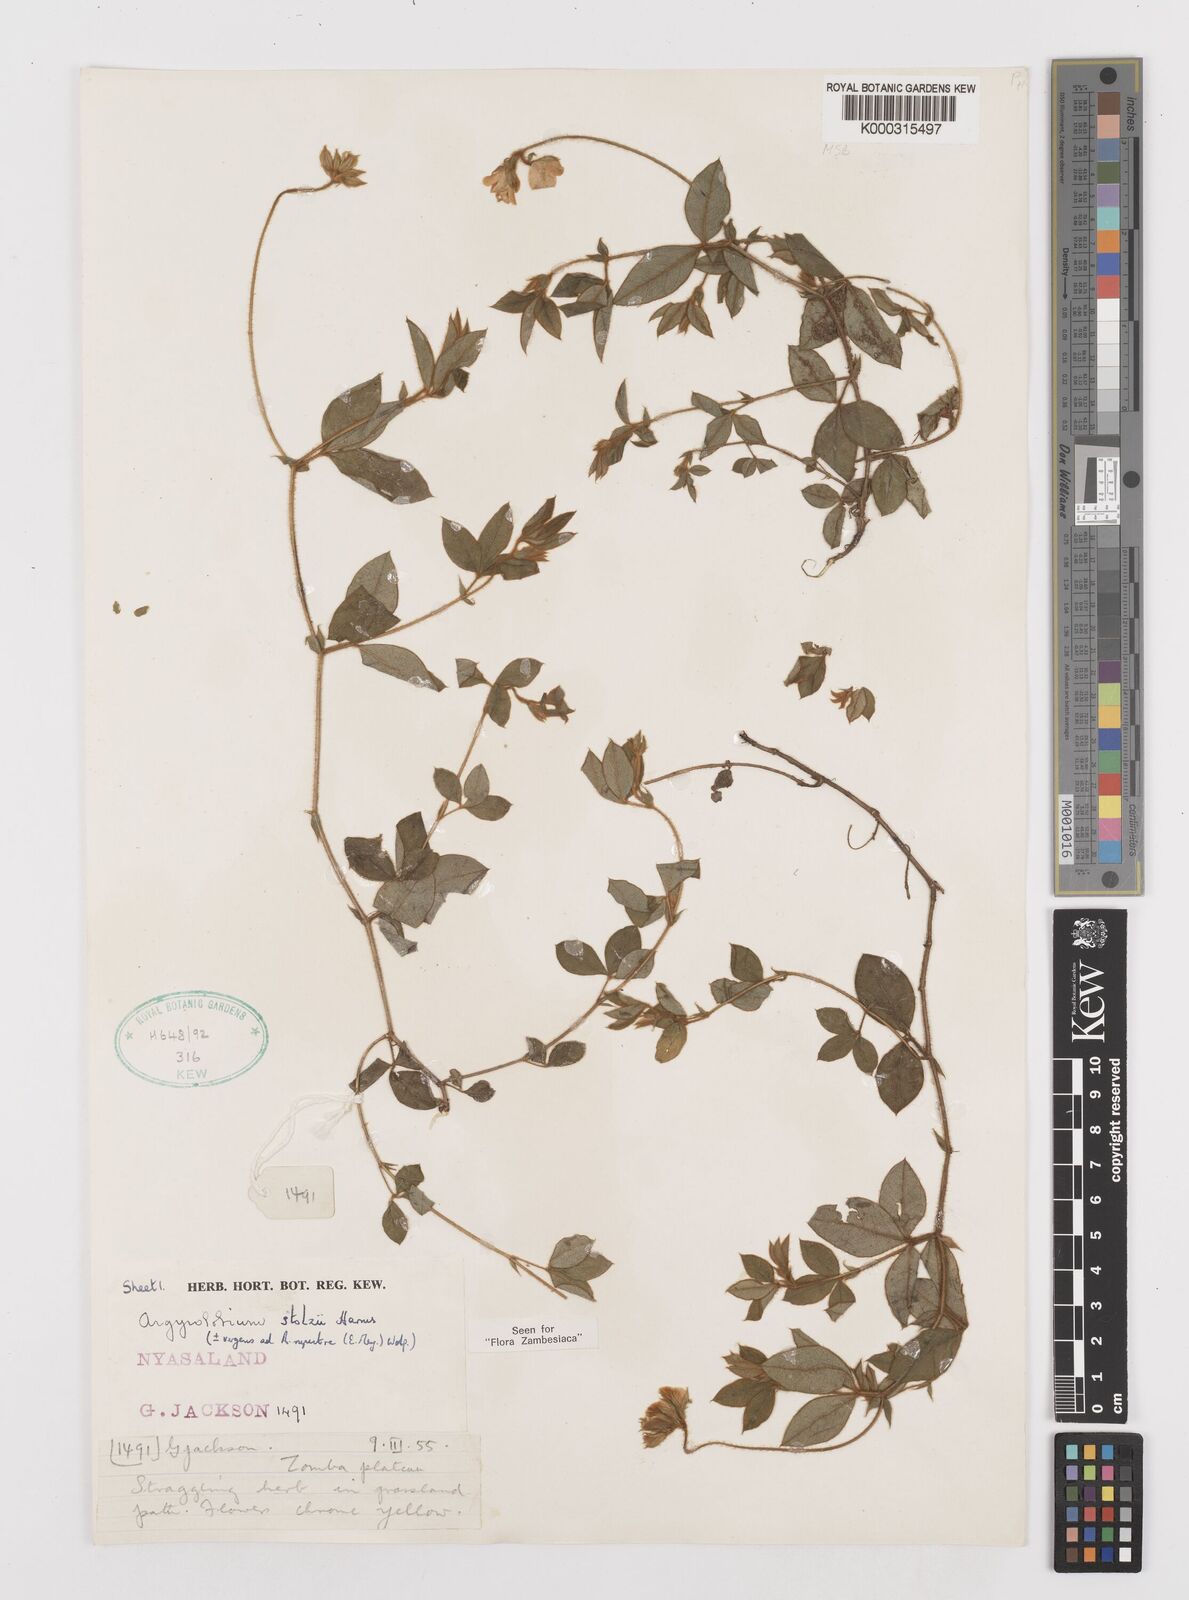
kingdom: Plantae
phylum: Tracheophyta
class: Magnoliopsida
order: Fabales
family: Fabaceae
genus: Argyrolobium
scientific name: Argyrolobium stolzii
